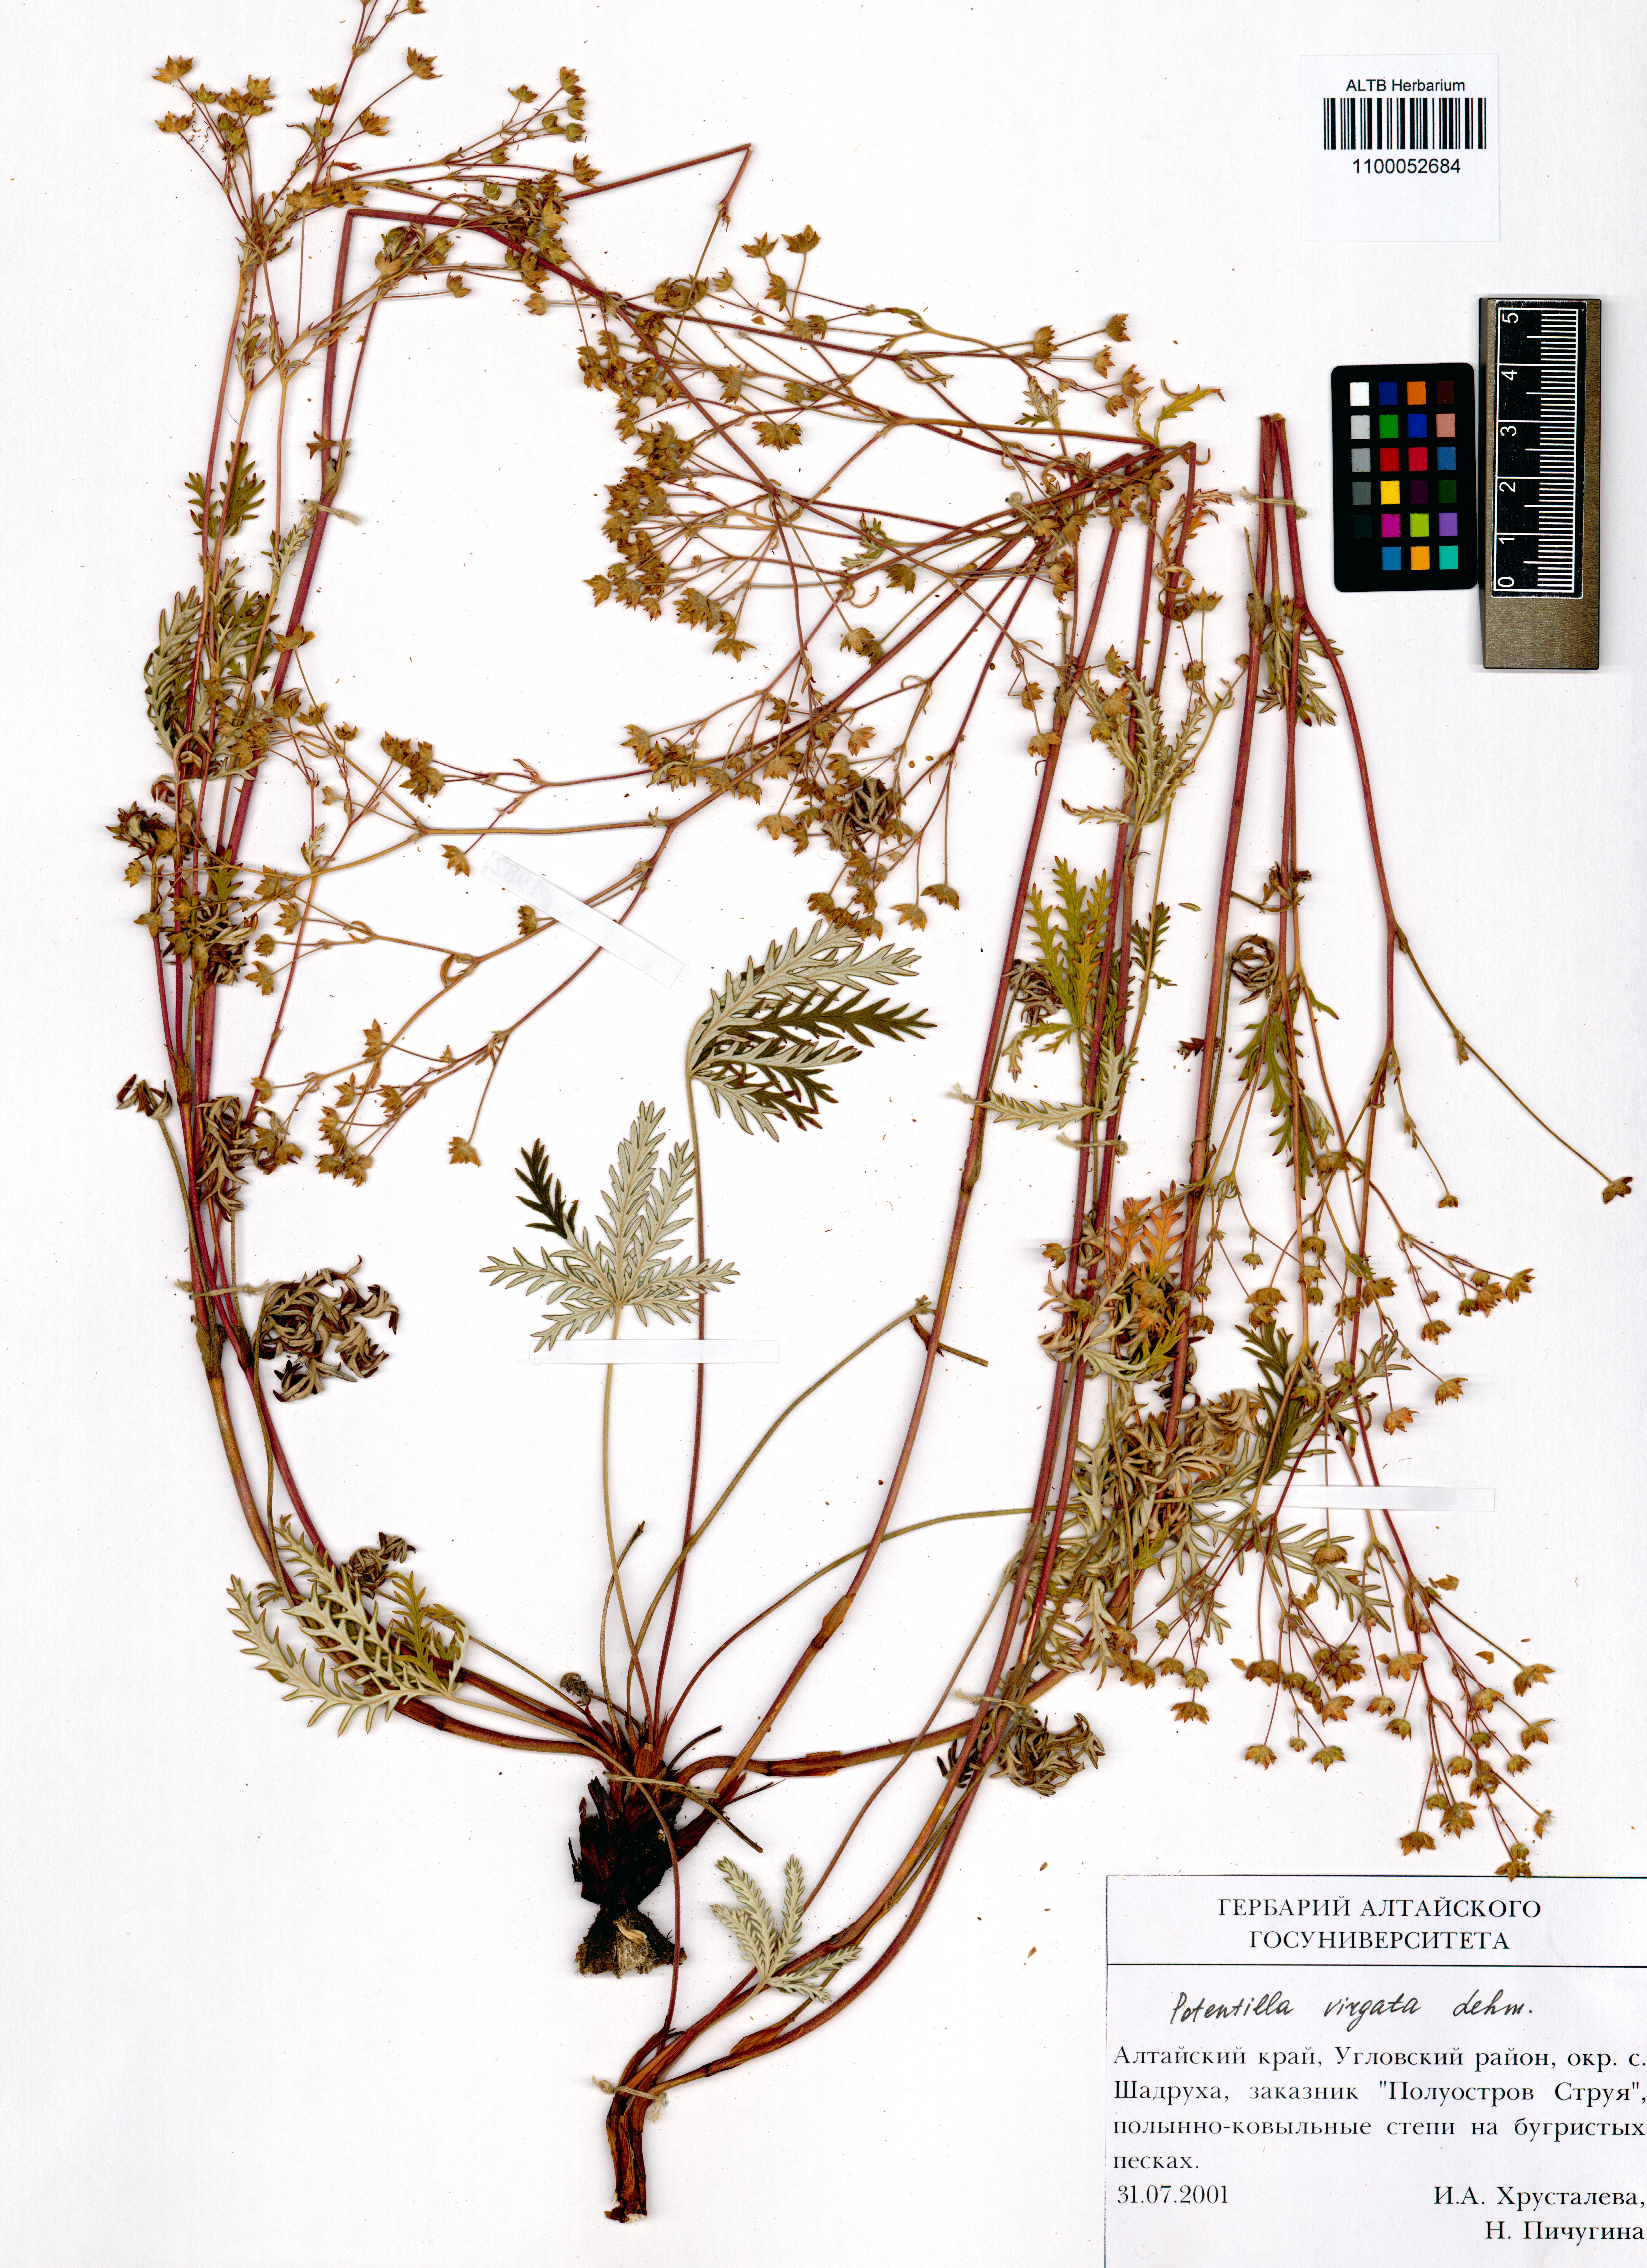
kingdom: Plantae
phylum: Tracheophyta
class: Magnoliopsida
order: Rosales
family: Rosaceae
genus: Potentilla
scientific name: Potentilla virgata
